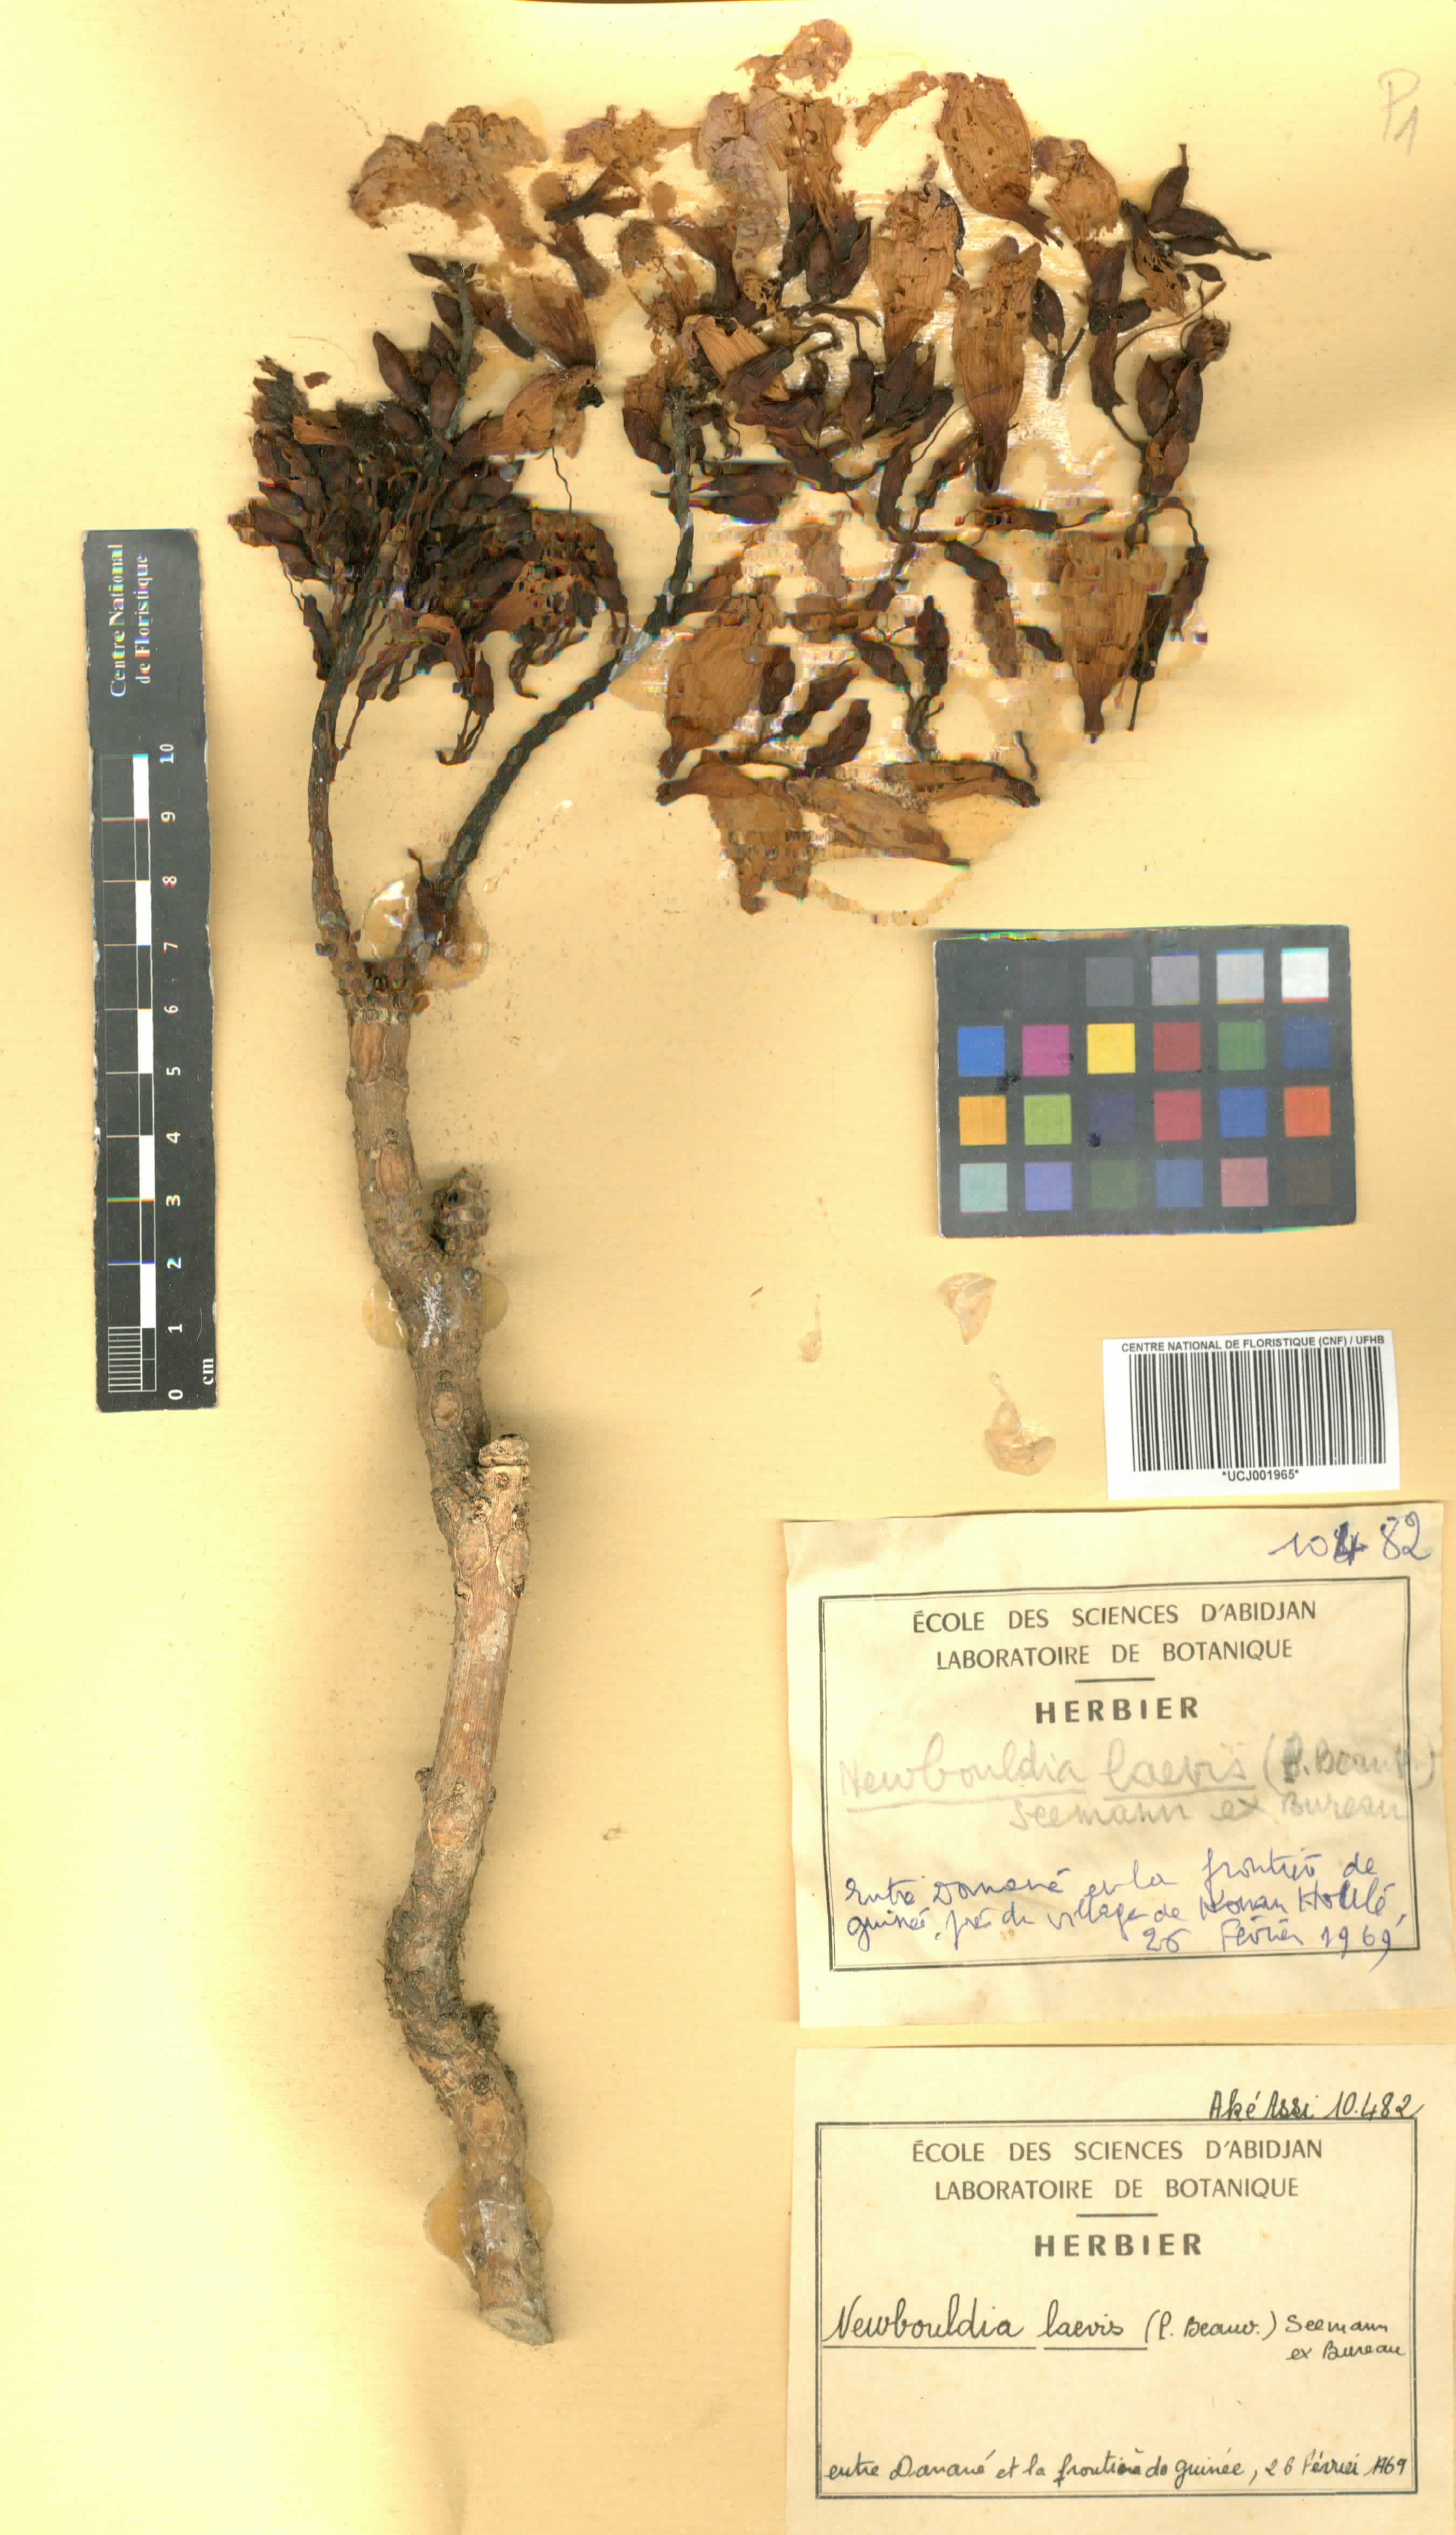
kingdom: Plantae
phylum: Tracheophyta
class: Magnoliopsida
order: Lamiales
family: Bignoniaceae
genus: Newbouldia
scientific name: Newbouldia laevis
